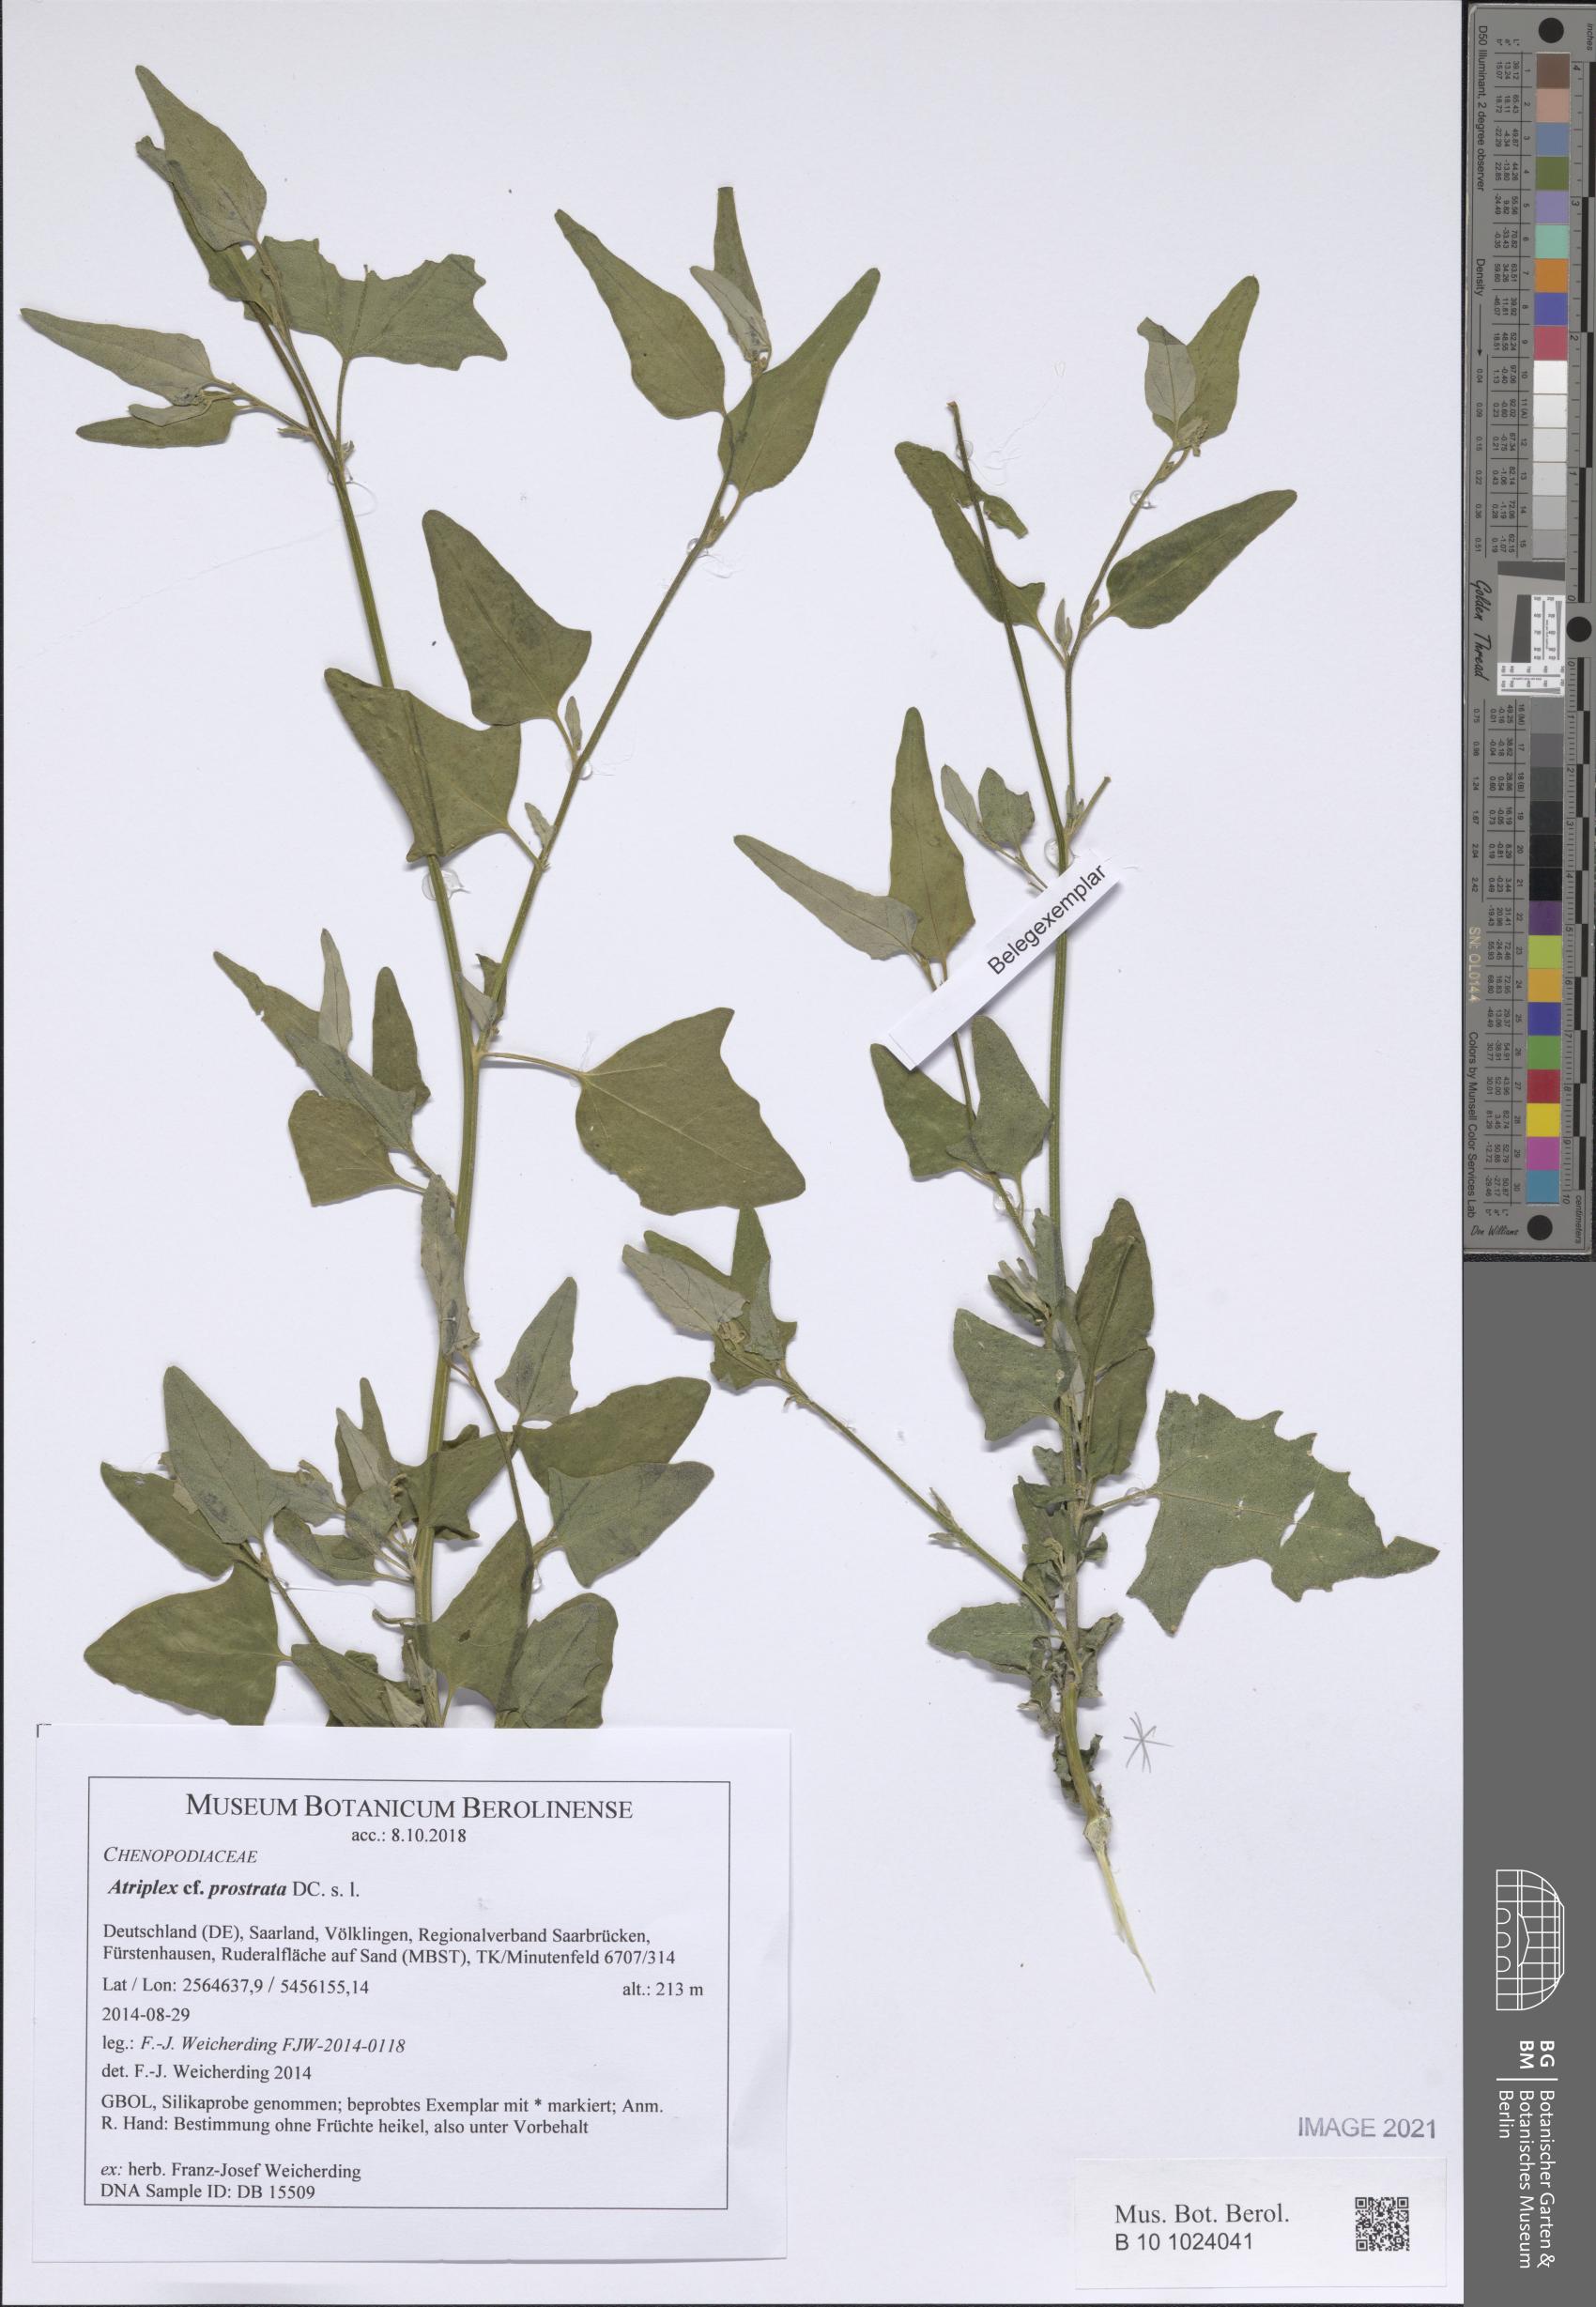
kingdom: Plantae
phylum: Tracheophyta
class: Magnoliopsida
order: Caryophyllales
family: Amaranthaceae
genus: Atriplex
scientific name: Atriplex prostrata
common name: Spear-leaved orache
